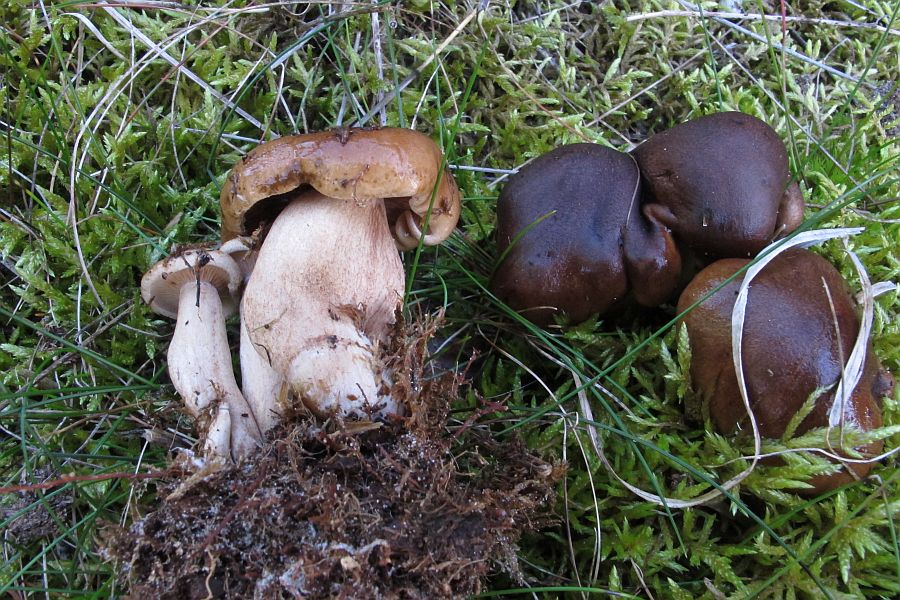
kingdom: Fungi
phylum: Basidiomycota
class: Agaricomycetes
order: Agaricales
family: Tricholomataceae
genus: Tricholoma
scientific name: Tricholoma fulvum
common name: birke-ridderhat
